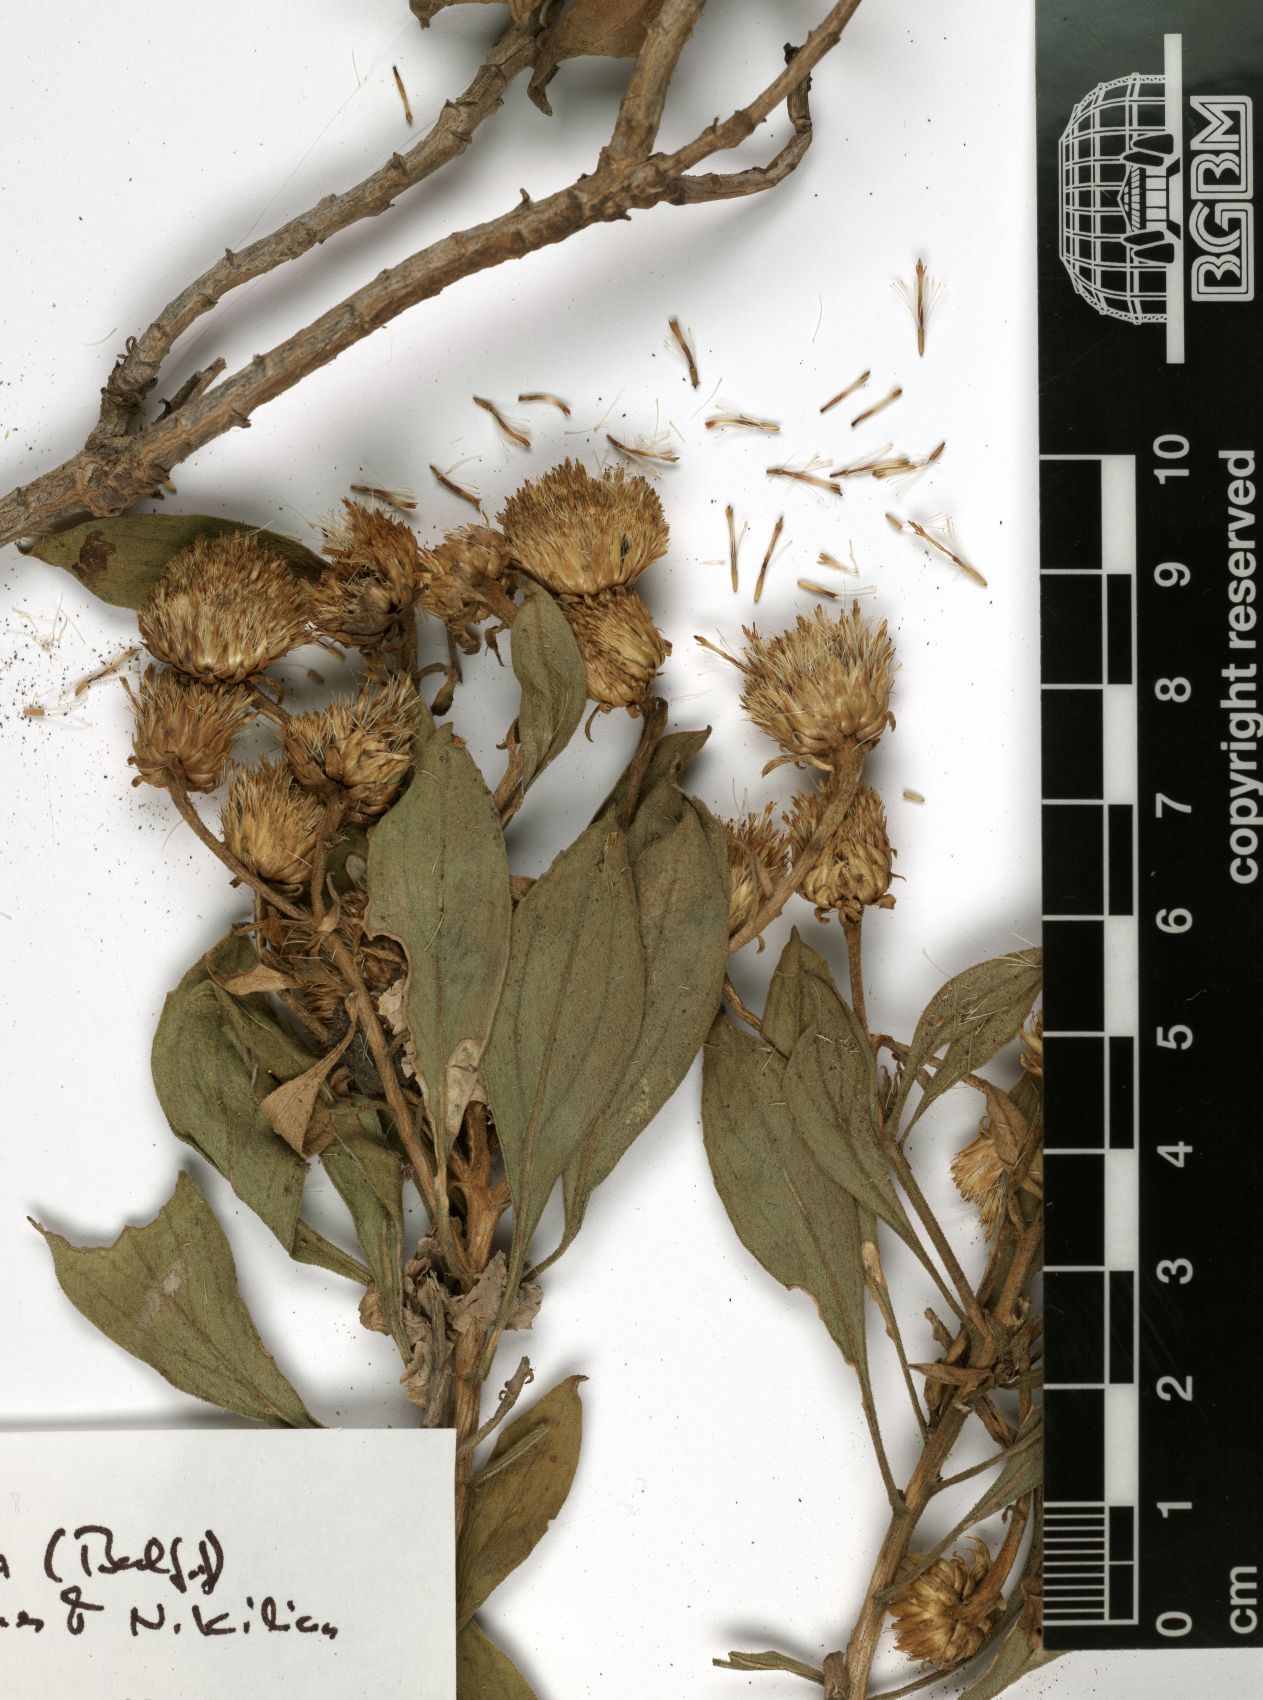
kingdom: Plantae
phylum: Tracheophyta
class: Magnoliopsida
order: Asterales
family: Asteraceae
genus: Pulicaria
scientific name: Pulicaria aromatica
